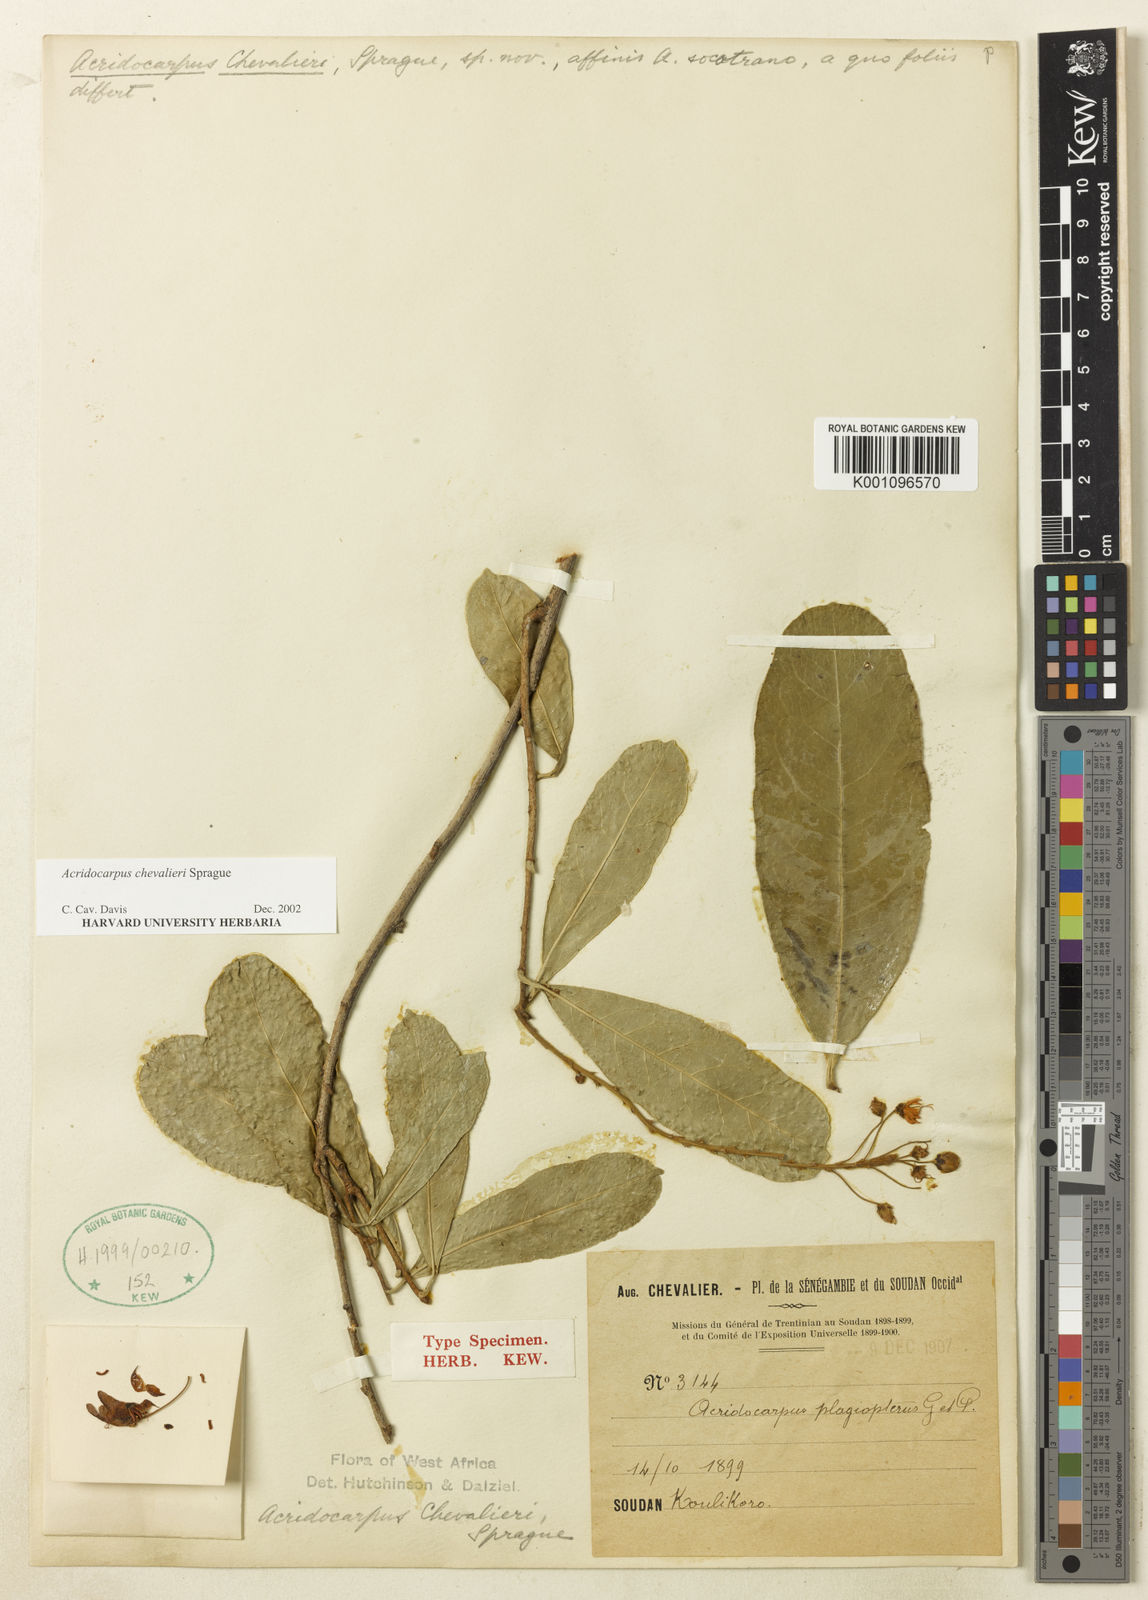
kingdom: Plantae
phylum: Tracheophyta
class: Magnoliopsida
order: Malpighiales
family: Malpighiaceae
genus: Acridocarpus
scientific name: Acridocarpus chevalieri
